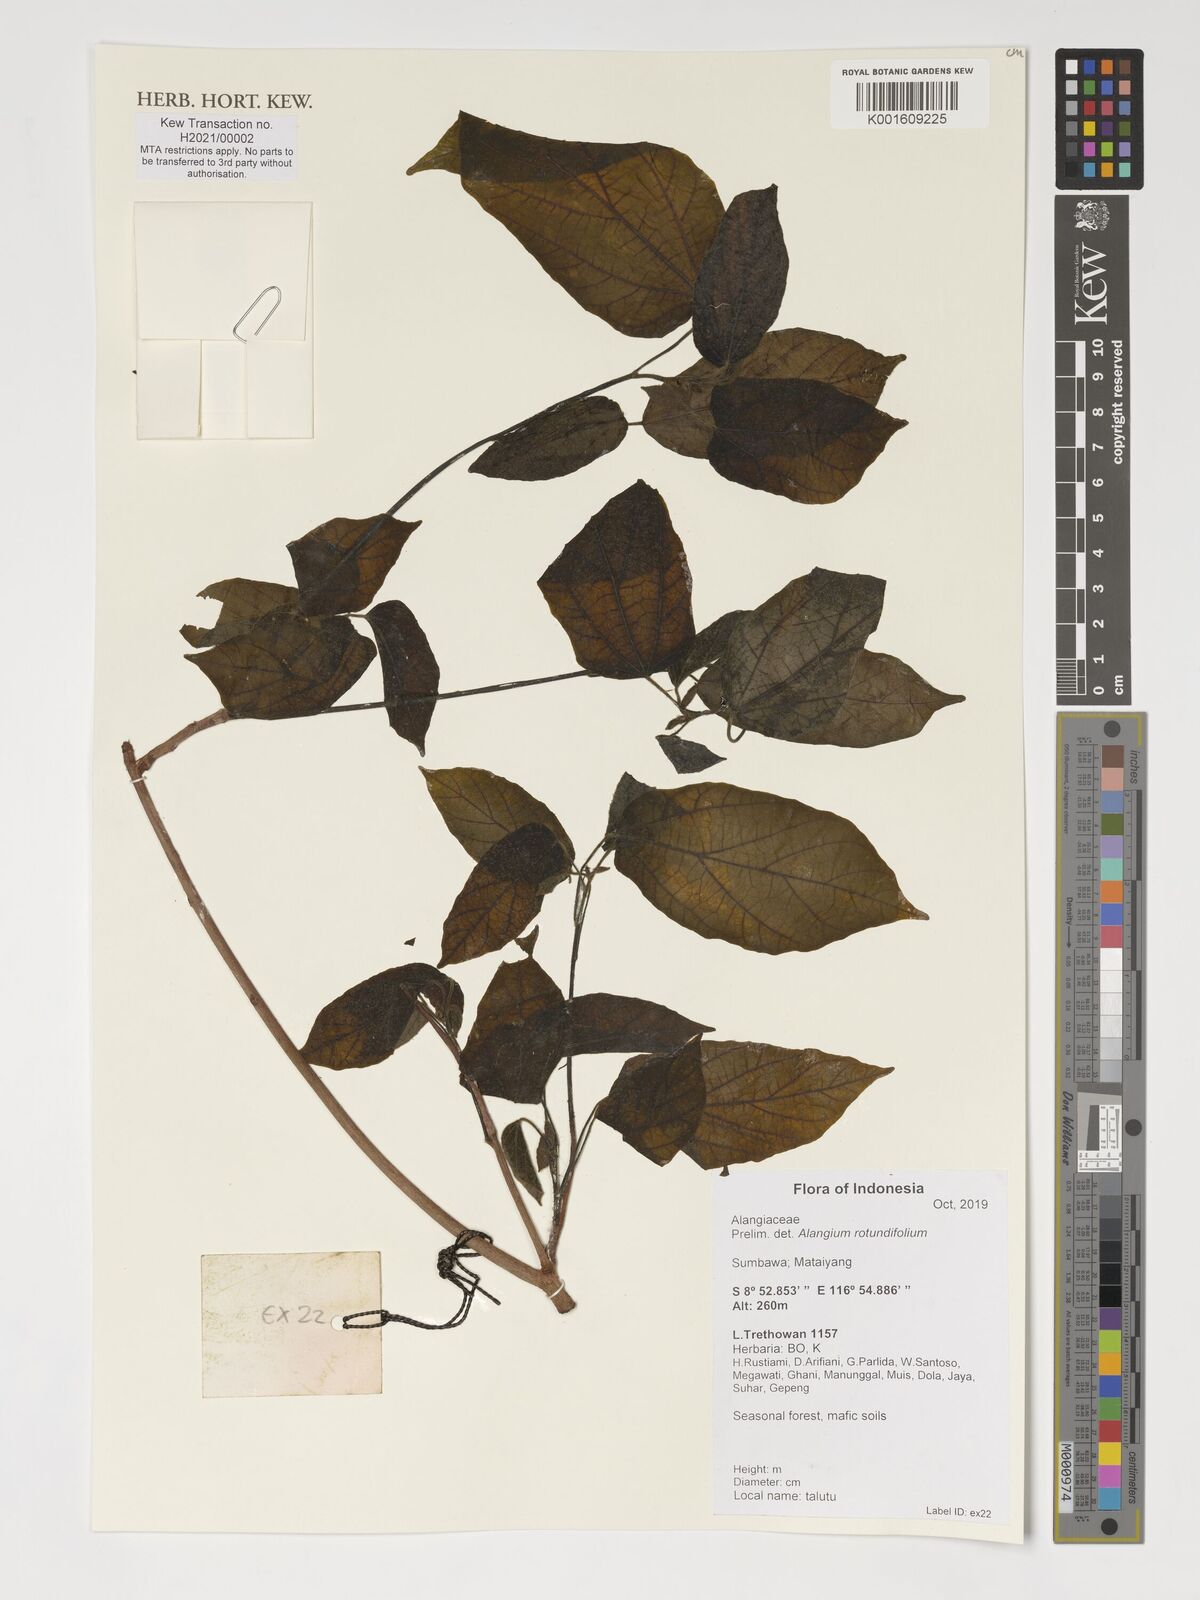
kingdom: Plantae
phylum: Tracheophyta
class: Magnoliopsida
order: Cornales
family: Cornaceae
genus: Alangium
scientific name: Alangium rotundifolium
